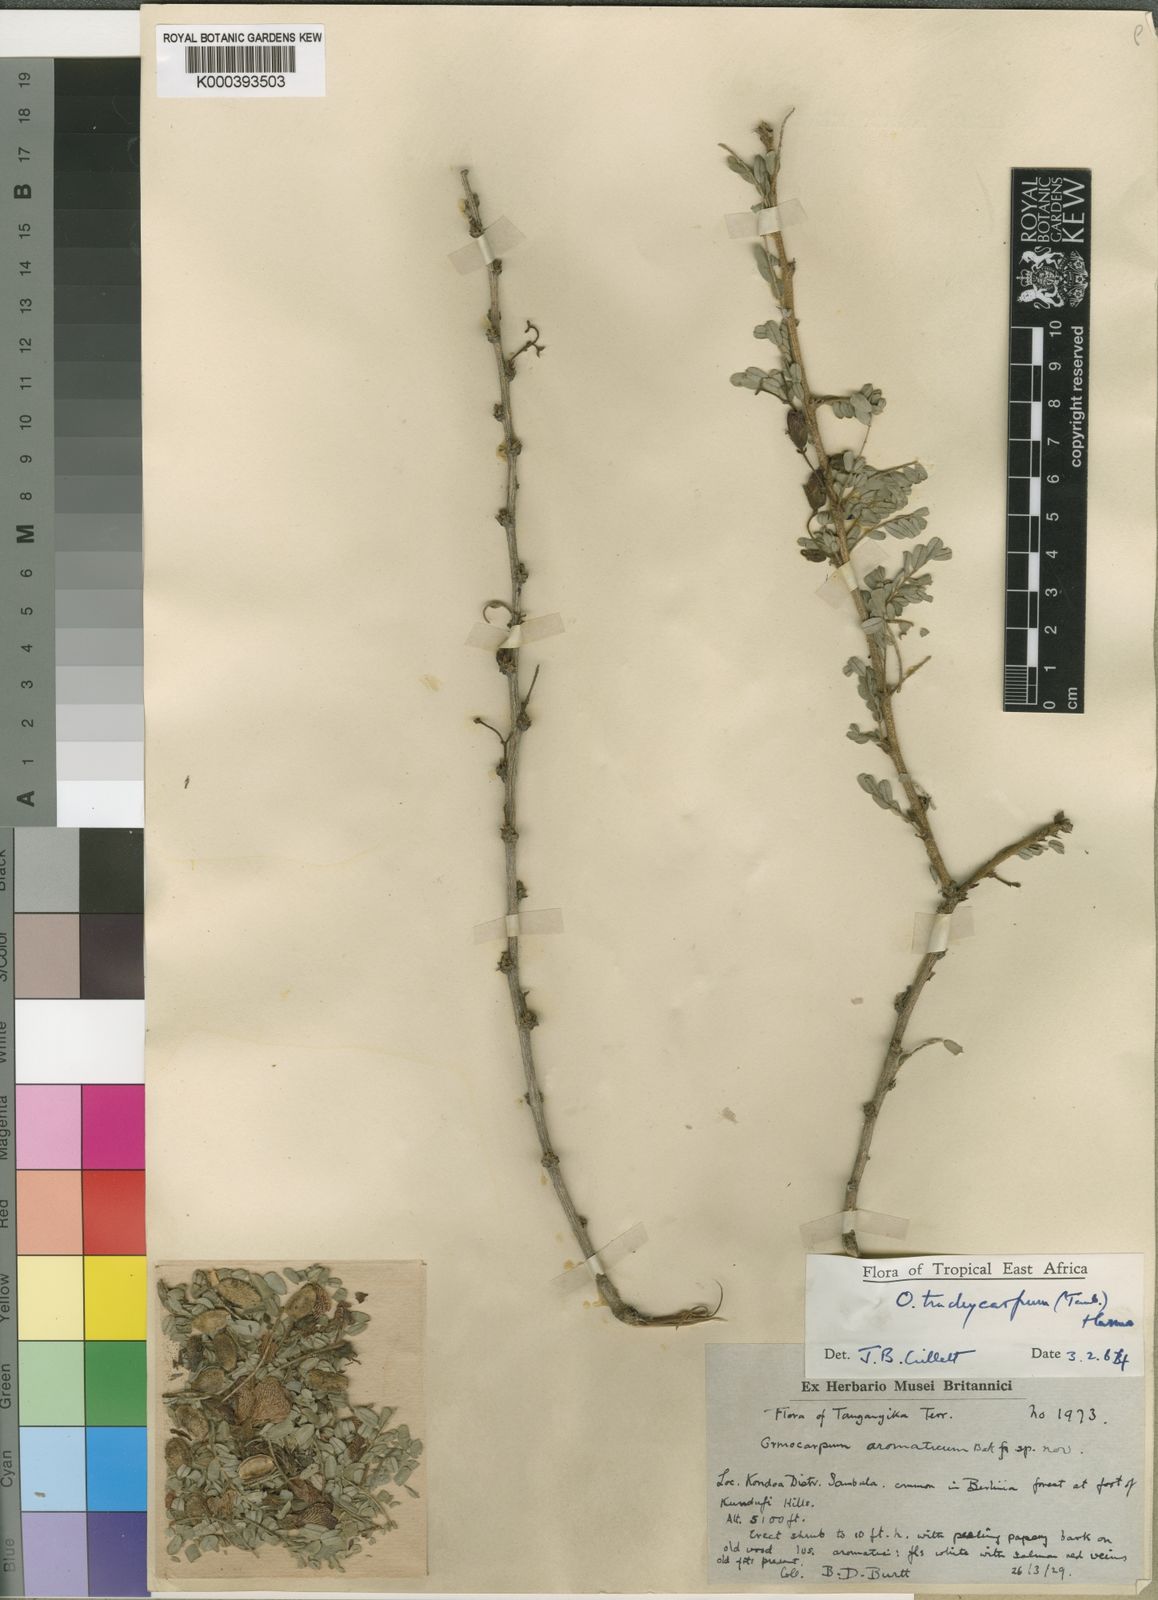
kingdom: Plantae
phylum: Tracheophyta
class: Magnoliopsida
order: Fabales
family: Fabaceae
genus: Ormocarpum
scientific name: Ormocarpum trachycarpum
